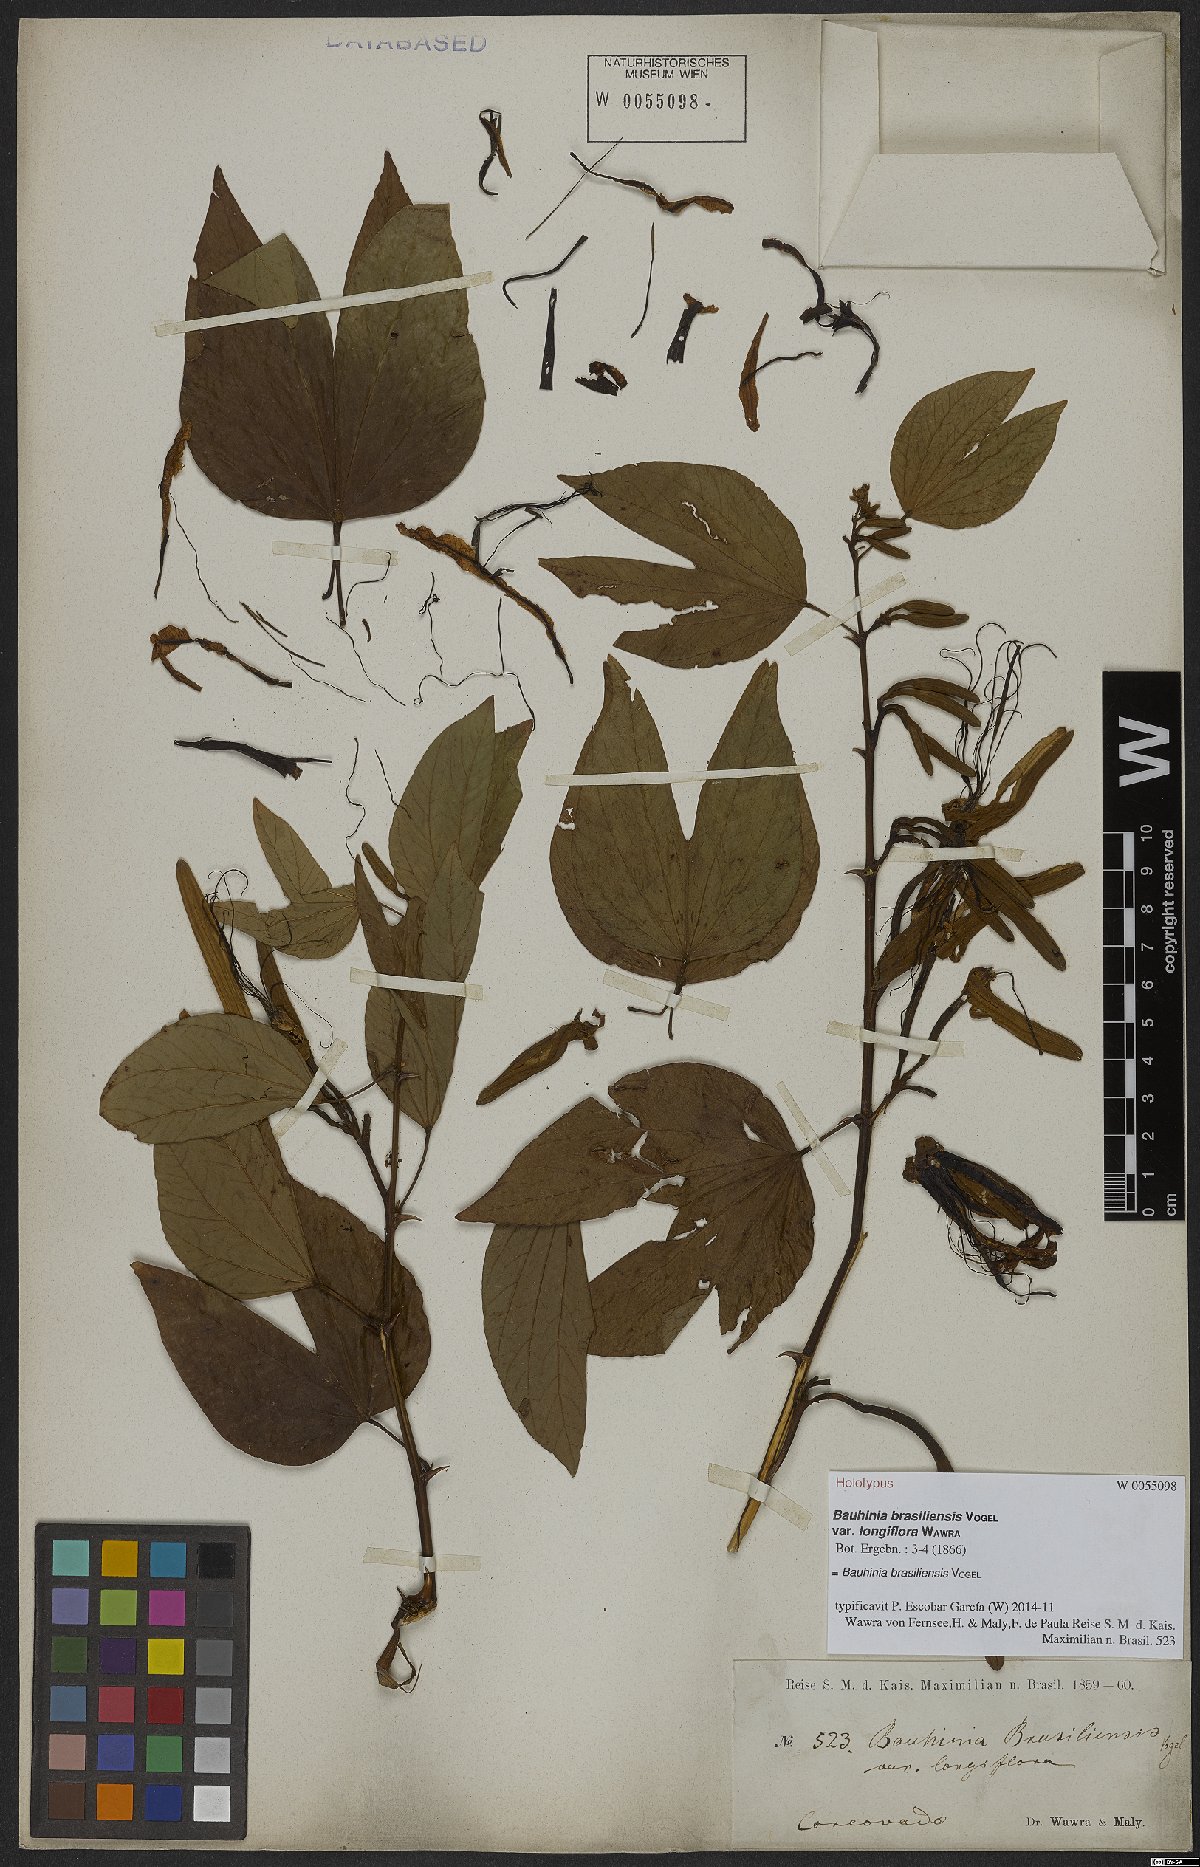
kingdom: Plantae
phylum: Tracheophyta
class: Magnoliopsida
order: Fabales
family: Fabaceae
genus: Bauhinia
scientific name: Bauhinia forficata
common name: Orchid tree
